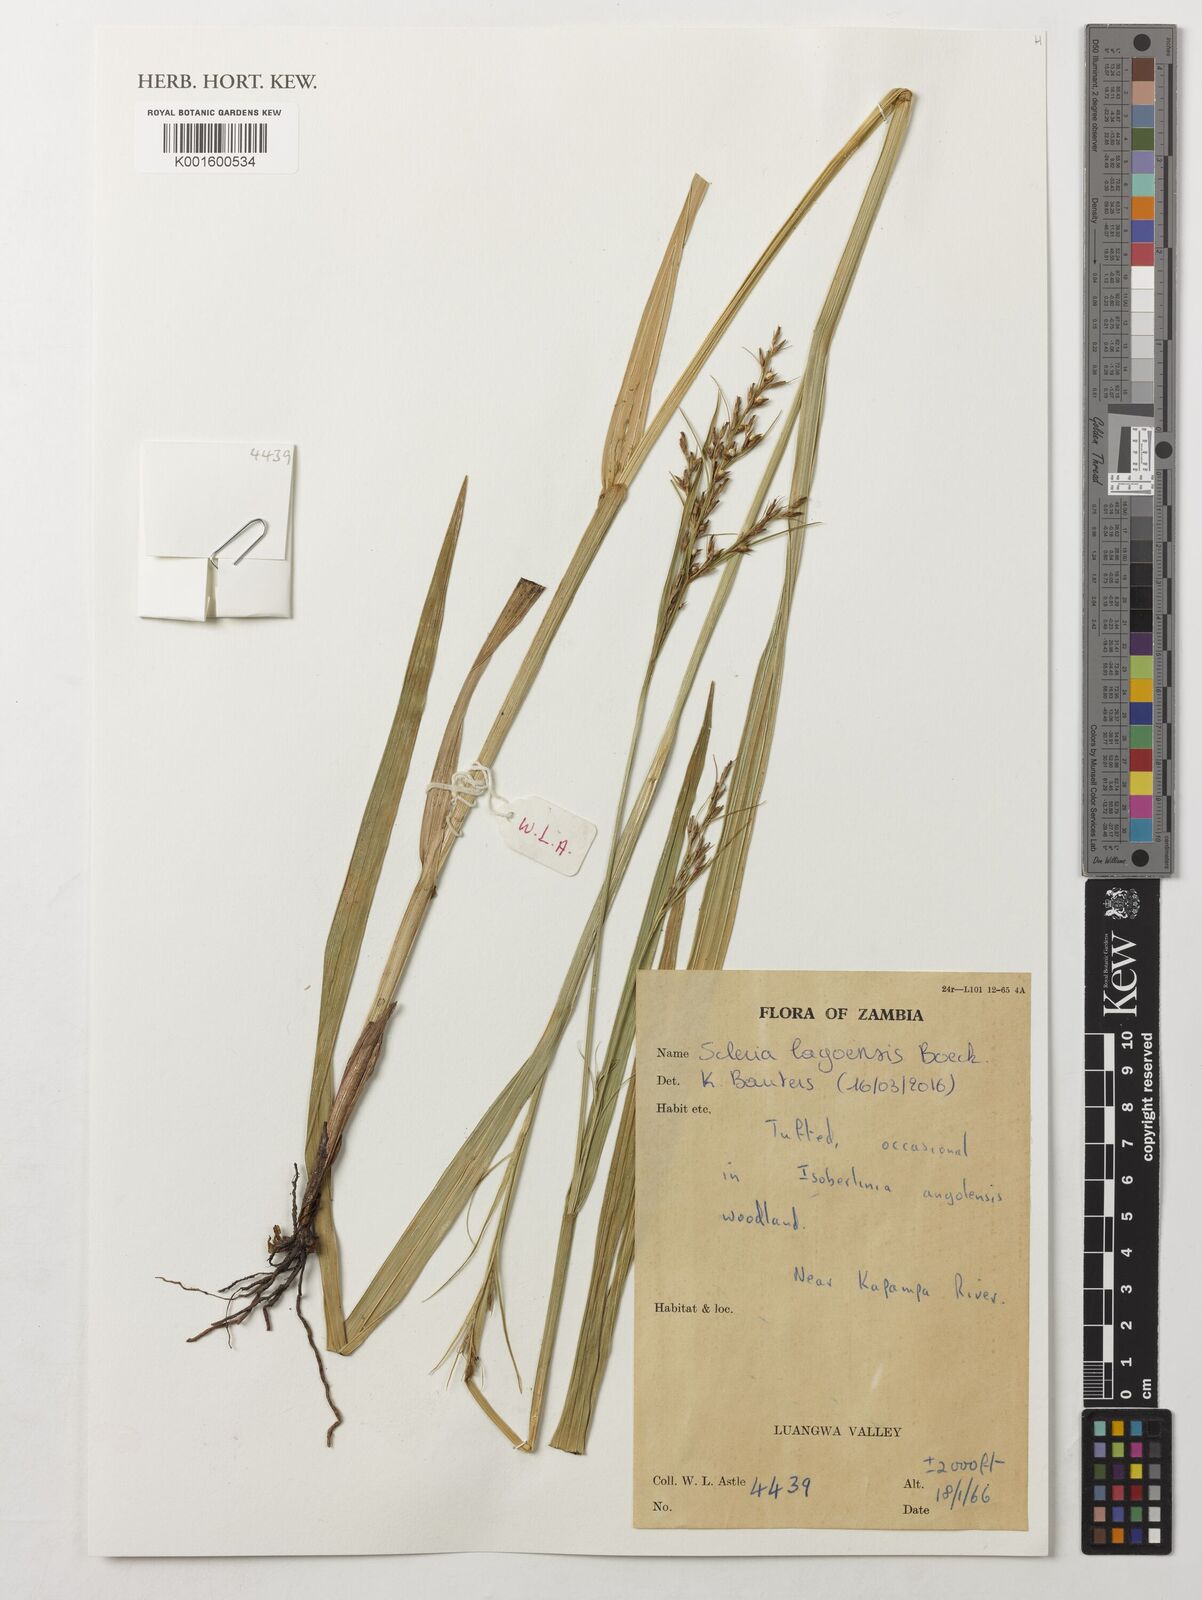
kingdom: Plantae
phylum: Tracheophyta
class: Liliopsida
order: Poales
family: Cyperaceae
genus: Scleria
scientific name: Scleria lagoensis
